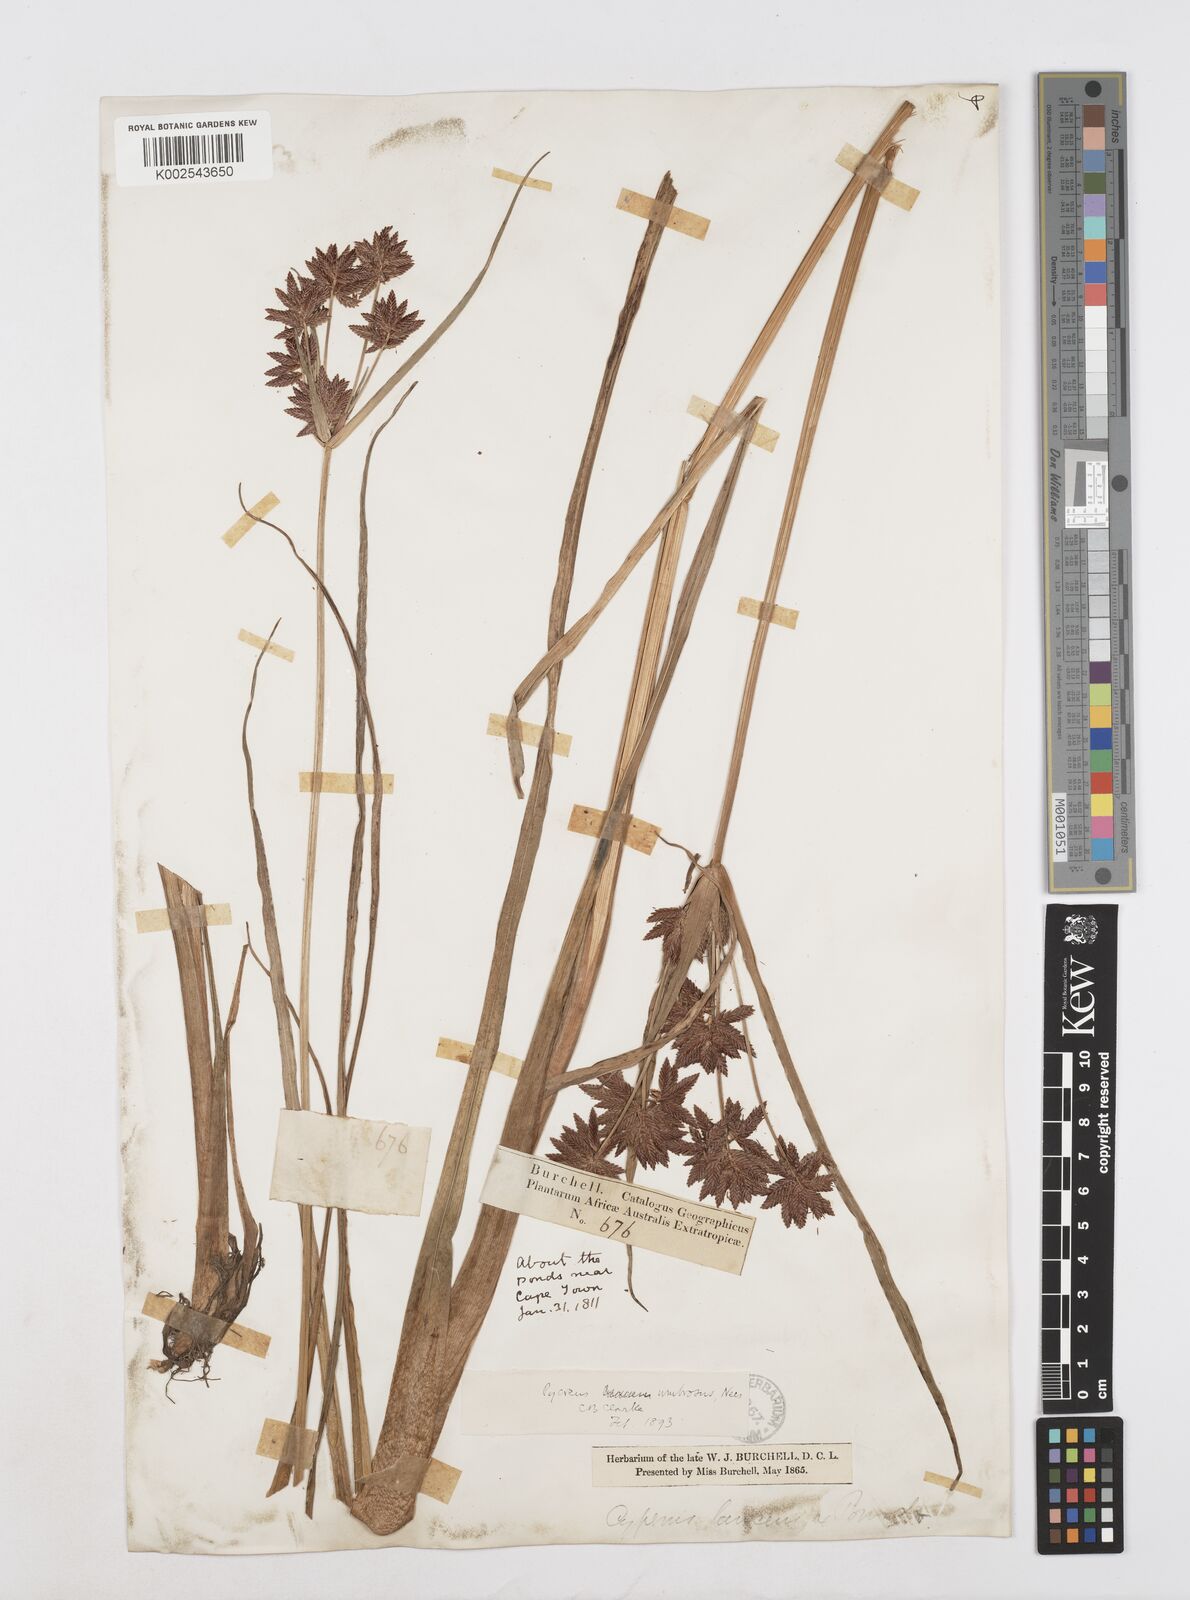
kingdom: Plantae
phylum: Tracheophyta
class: Liliopsida
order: Poales
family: Cyperaceae
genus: Cyperus
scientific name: Cyperus nitidus
